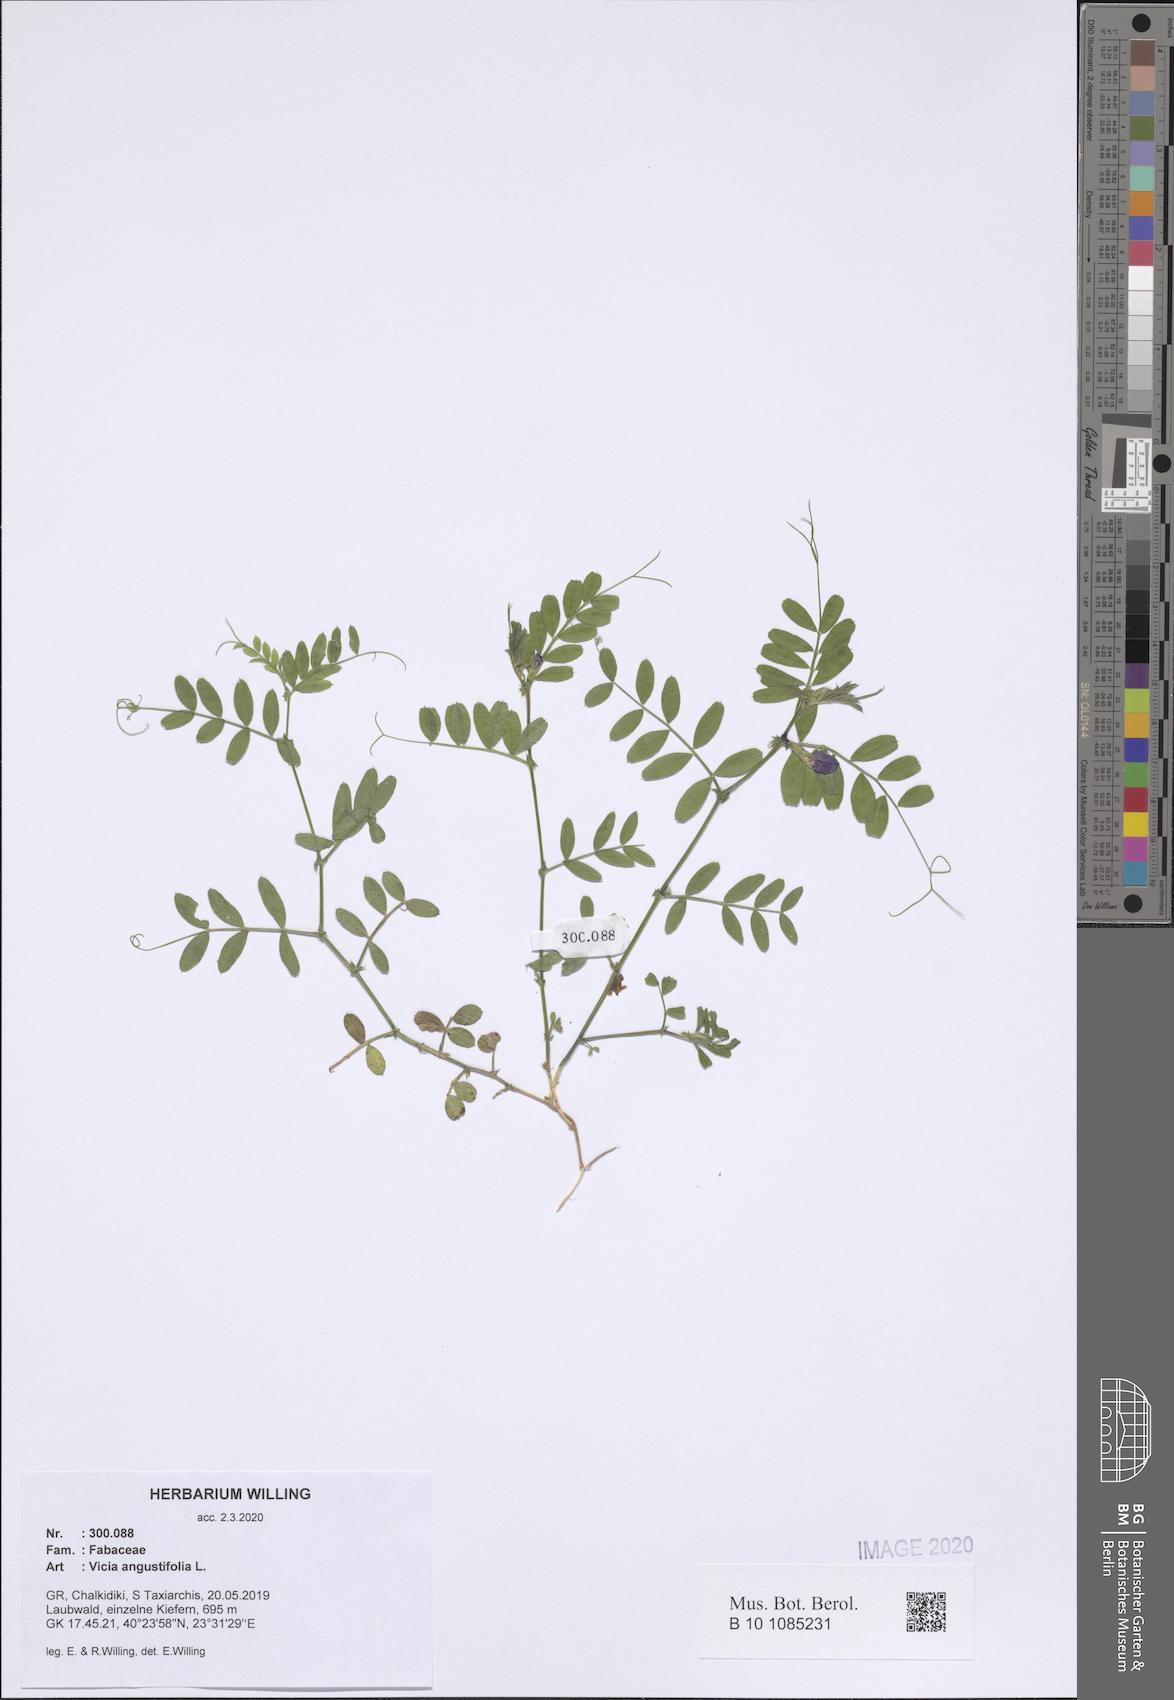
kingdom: Plantae
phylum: Tracheophyta
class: Magnoliopsida
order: Fabales
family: Fabaceae
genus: Vicia
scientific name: Vicia sativa
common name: Garden vetch
